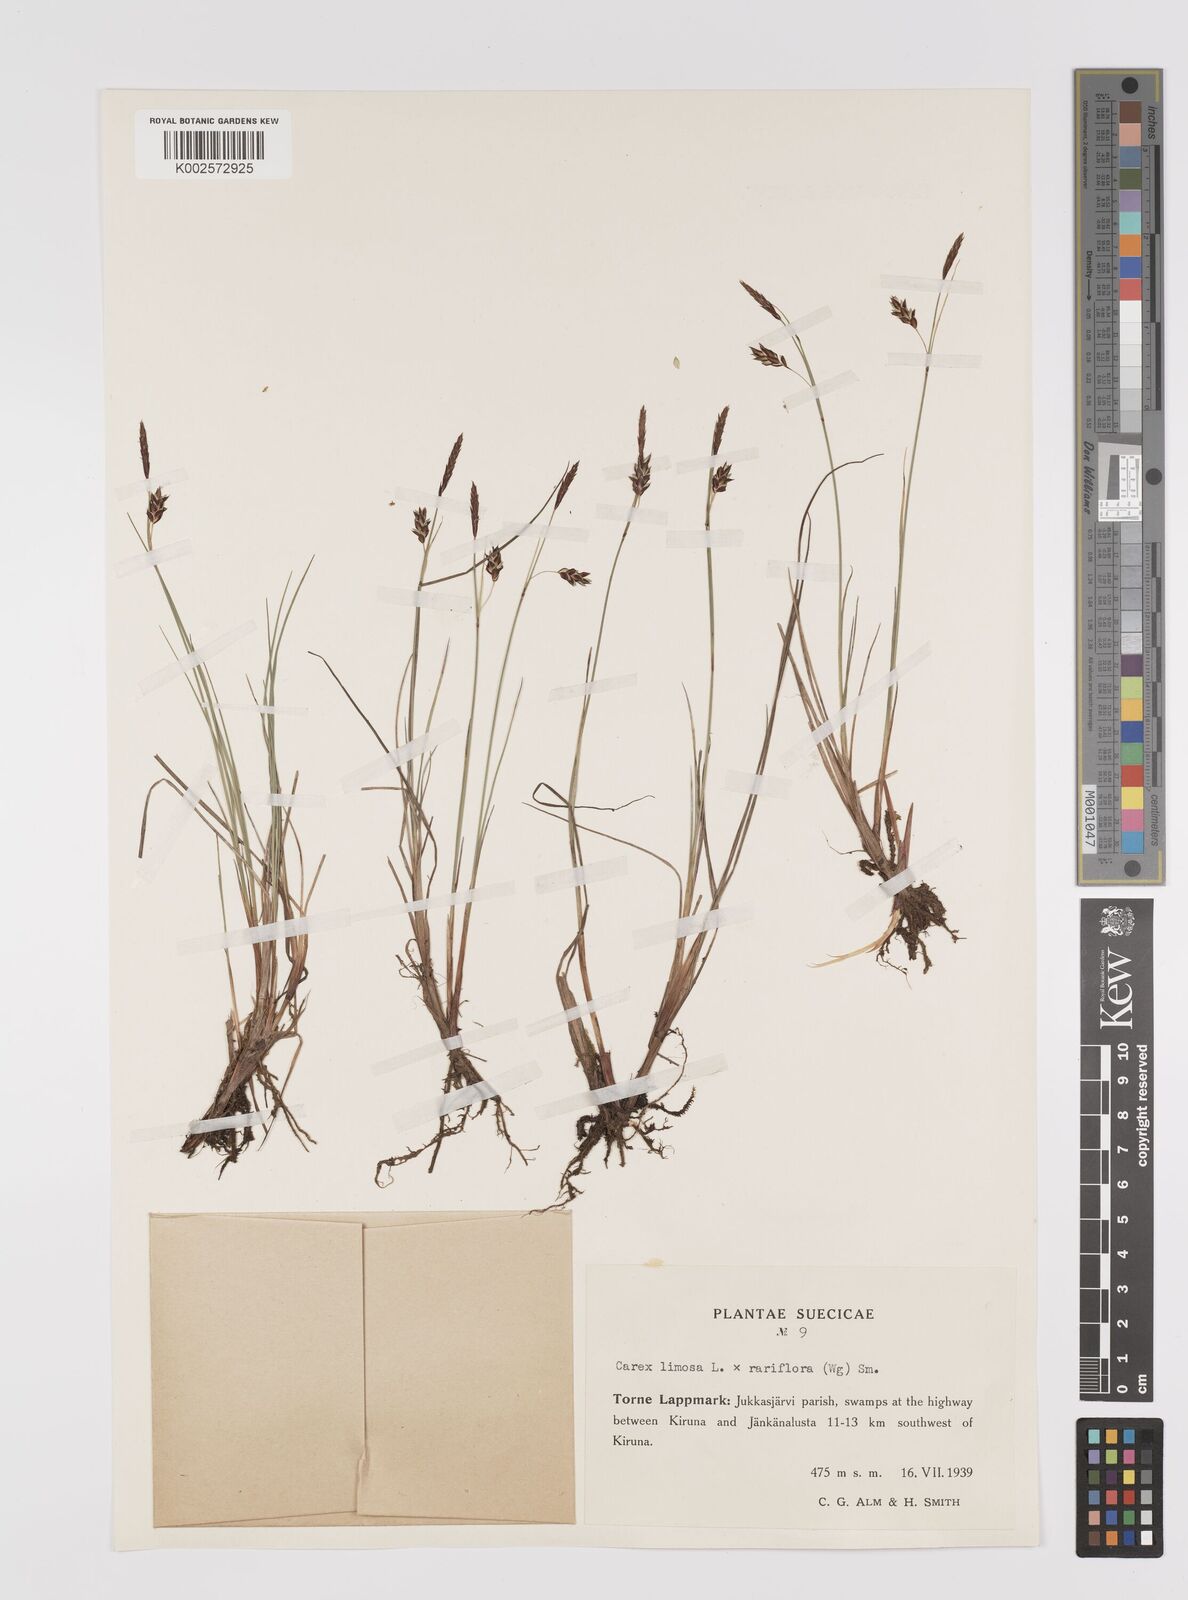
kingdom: Plantae
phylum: Tracheophyta
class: Liliopsida
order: Poales
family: Cyperaceae
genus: Carex
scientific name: Carex rariflora
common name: Loose-flowered alpine sedge
